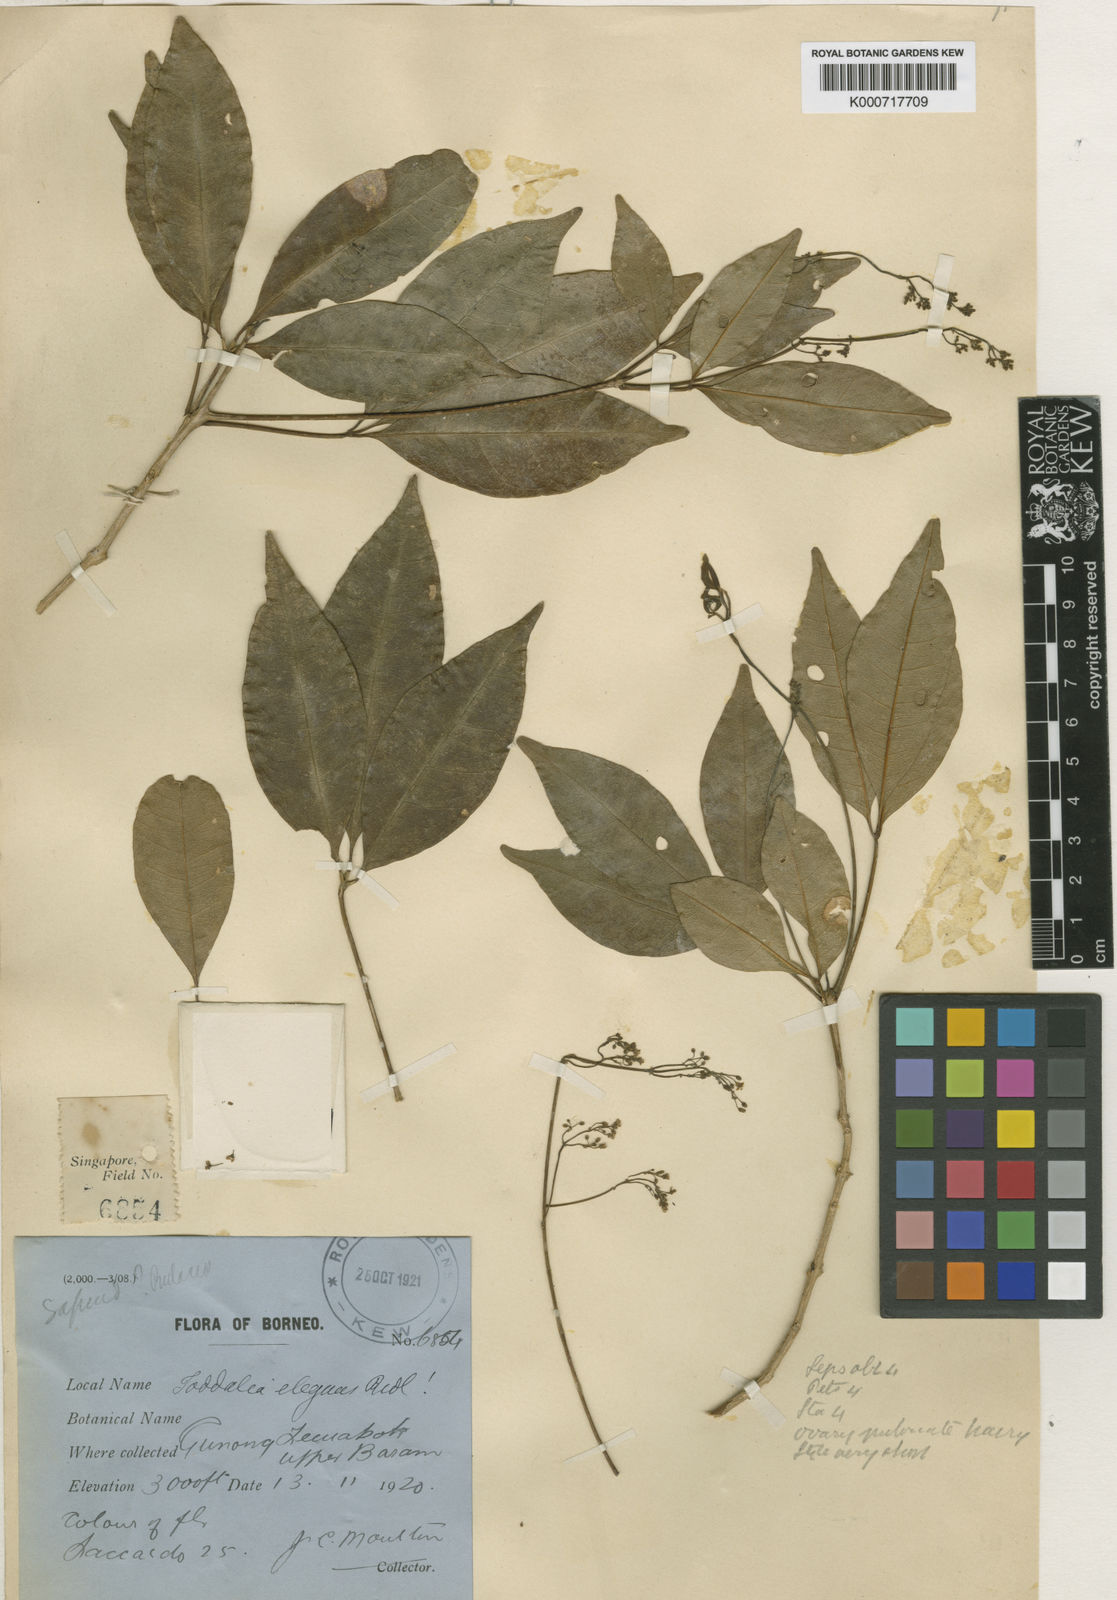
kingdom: Plantae
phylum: Tracheophyta
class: Magnoliopsida
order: Sapindales
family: Rutaceae
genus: Zanthoxylum
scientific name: Zanthoxylum
